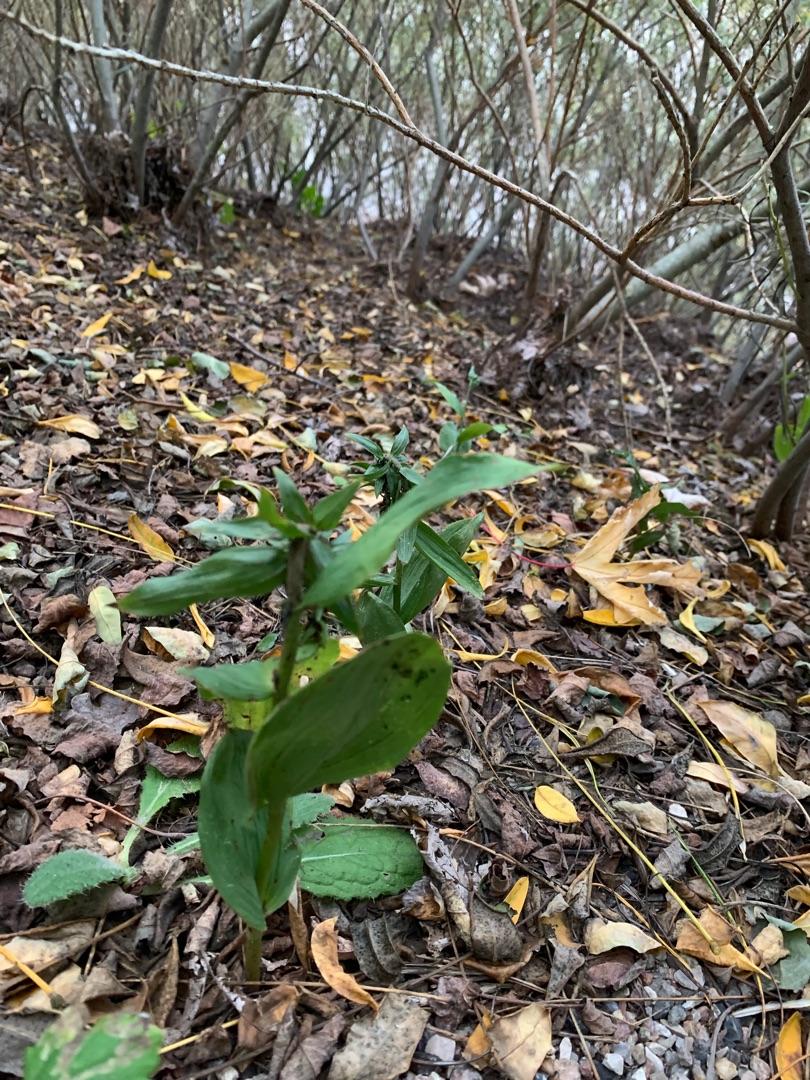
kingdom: Plantae
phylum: Tracheophyta
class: Liliopsida
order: Asparagales
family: Orchidaceae
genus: Epipactis
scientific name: Epipactis helleborine
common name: Skov-hullæbe
